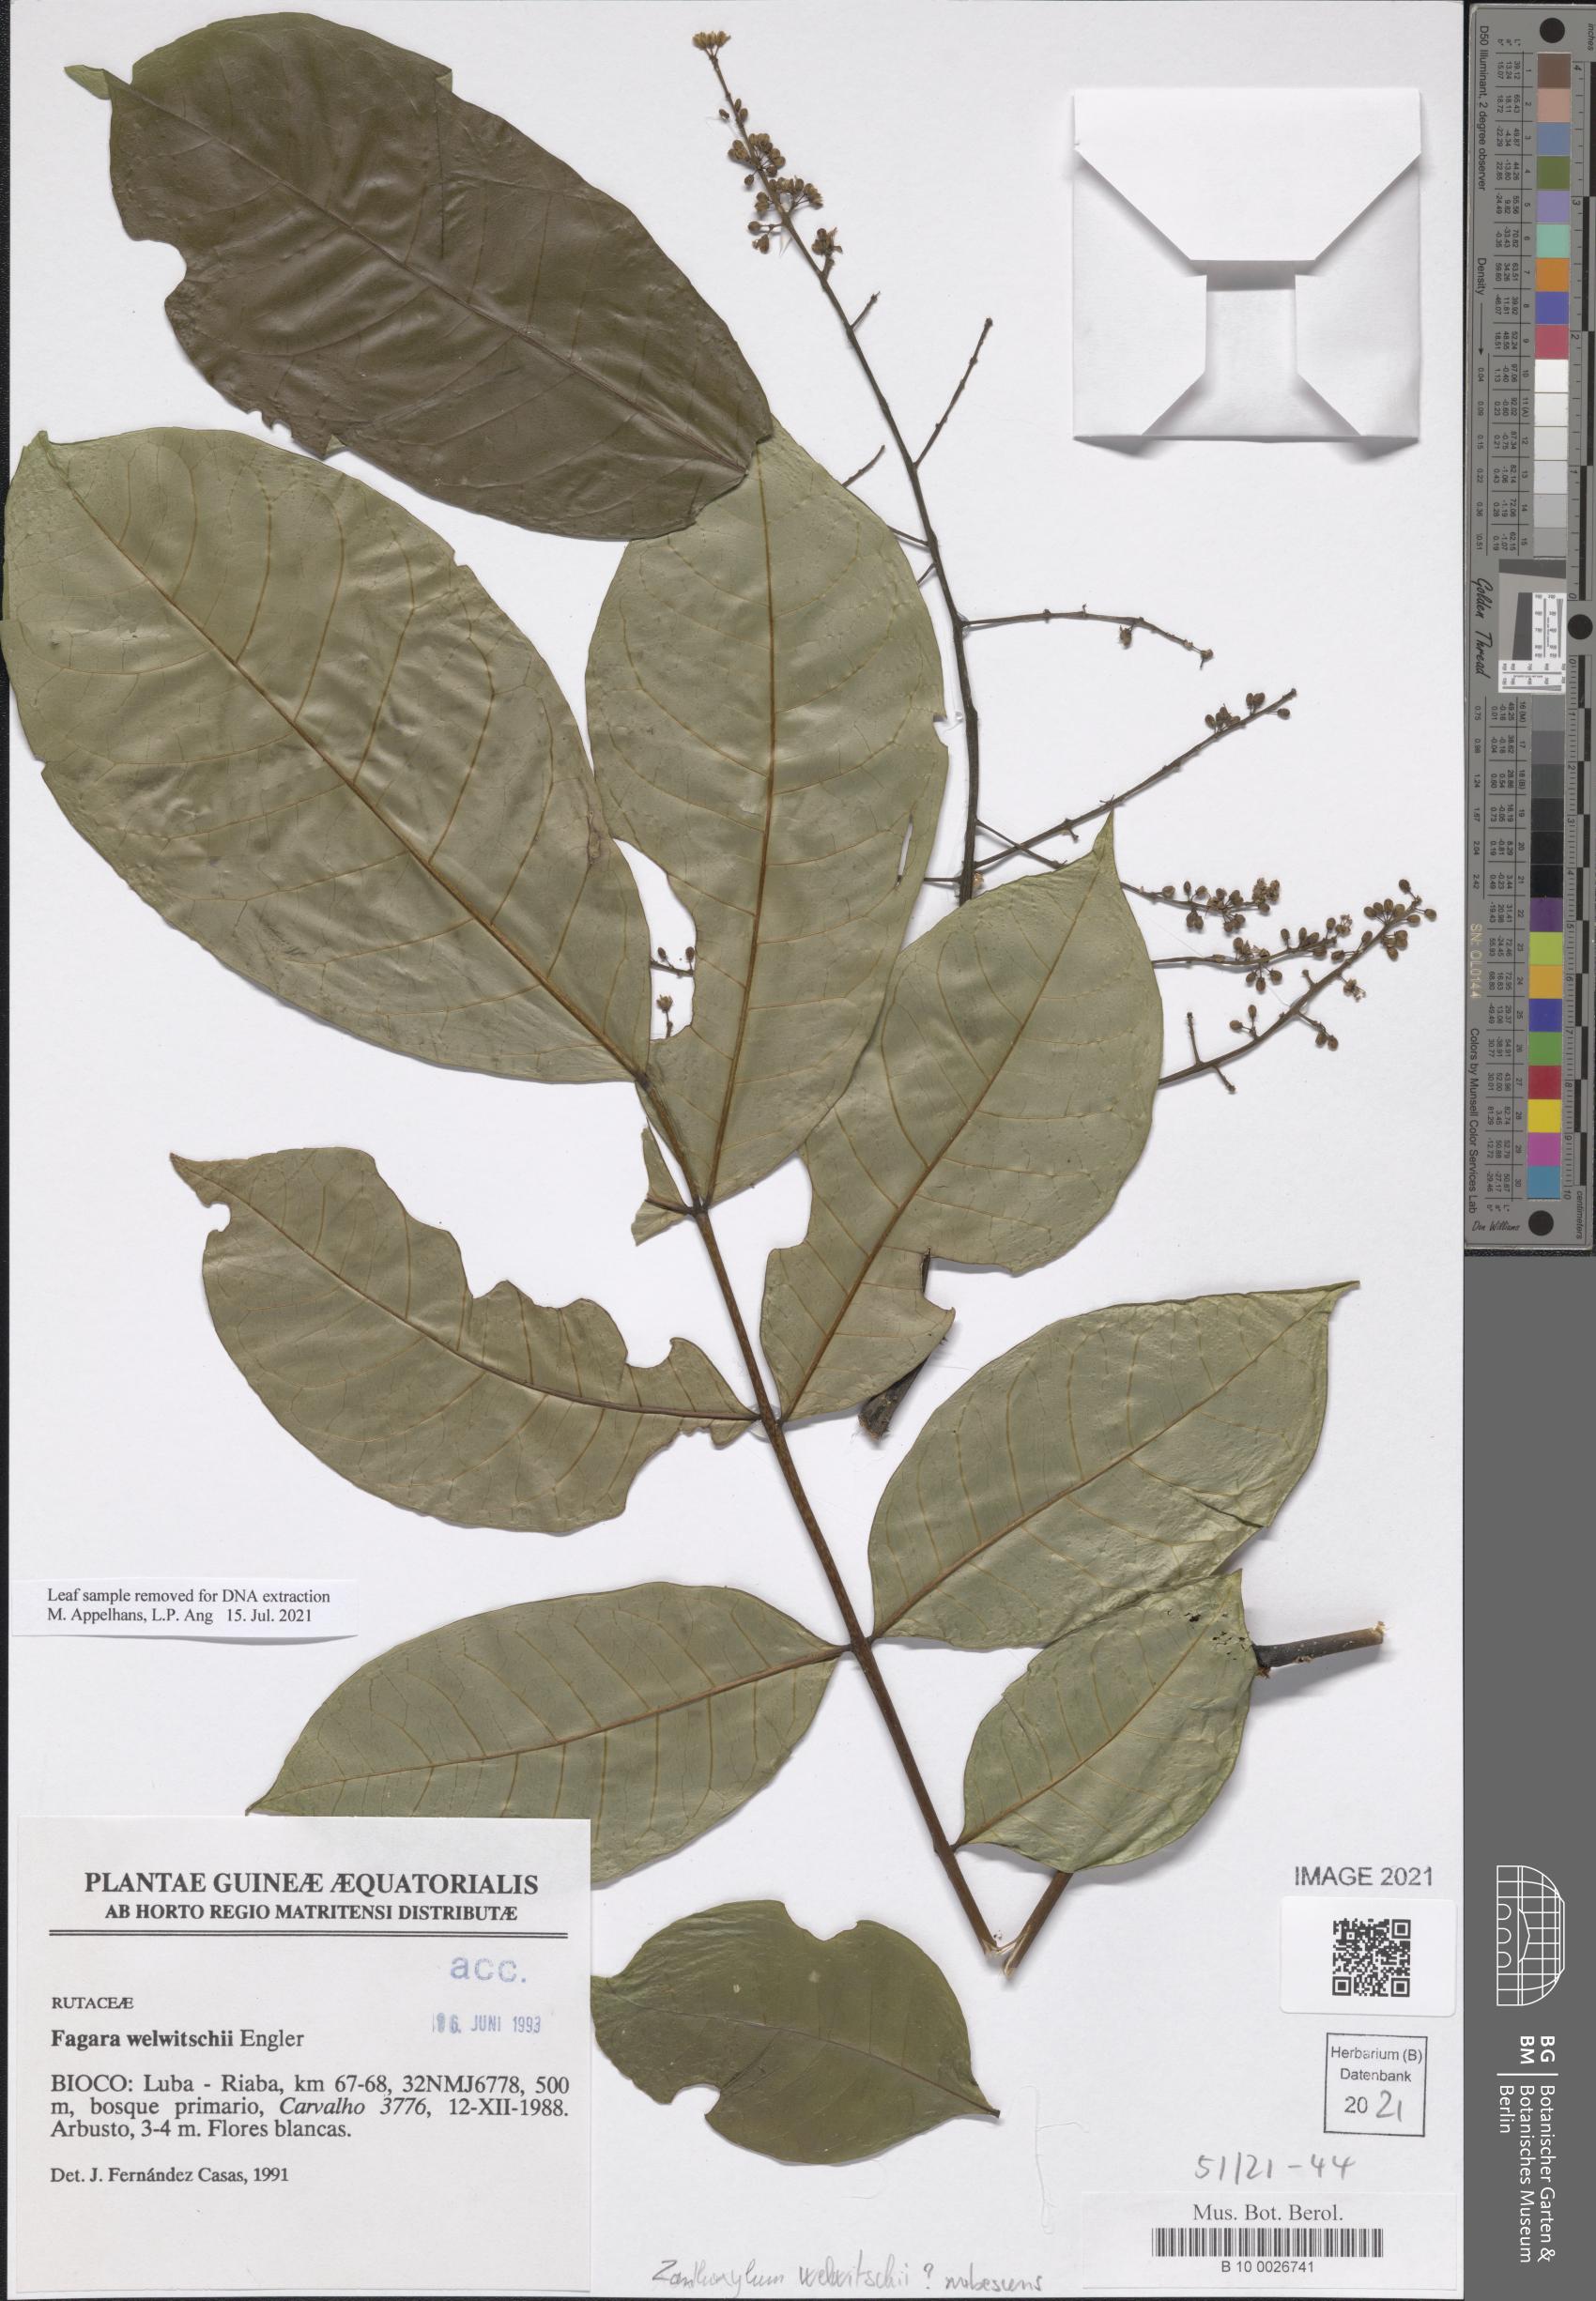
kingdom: Plantae
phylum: Tracheophyta
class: Magnoliopsida
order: Sapindales
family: Rutaceae
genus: Zanthoxylum
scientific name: Zanthoxylum rubescens
